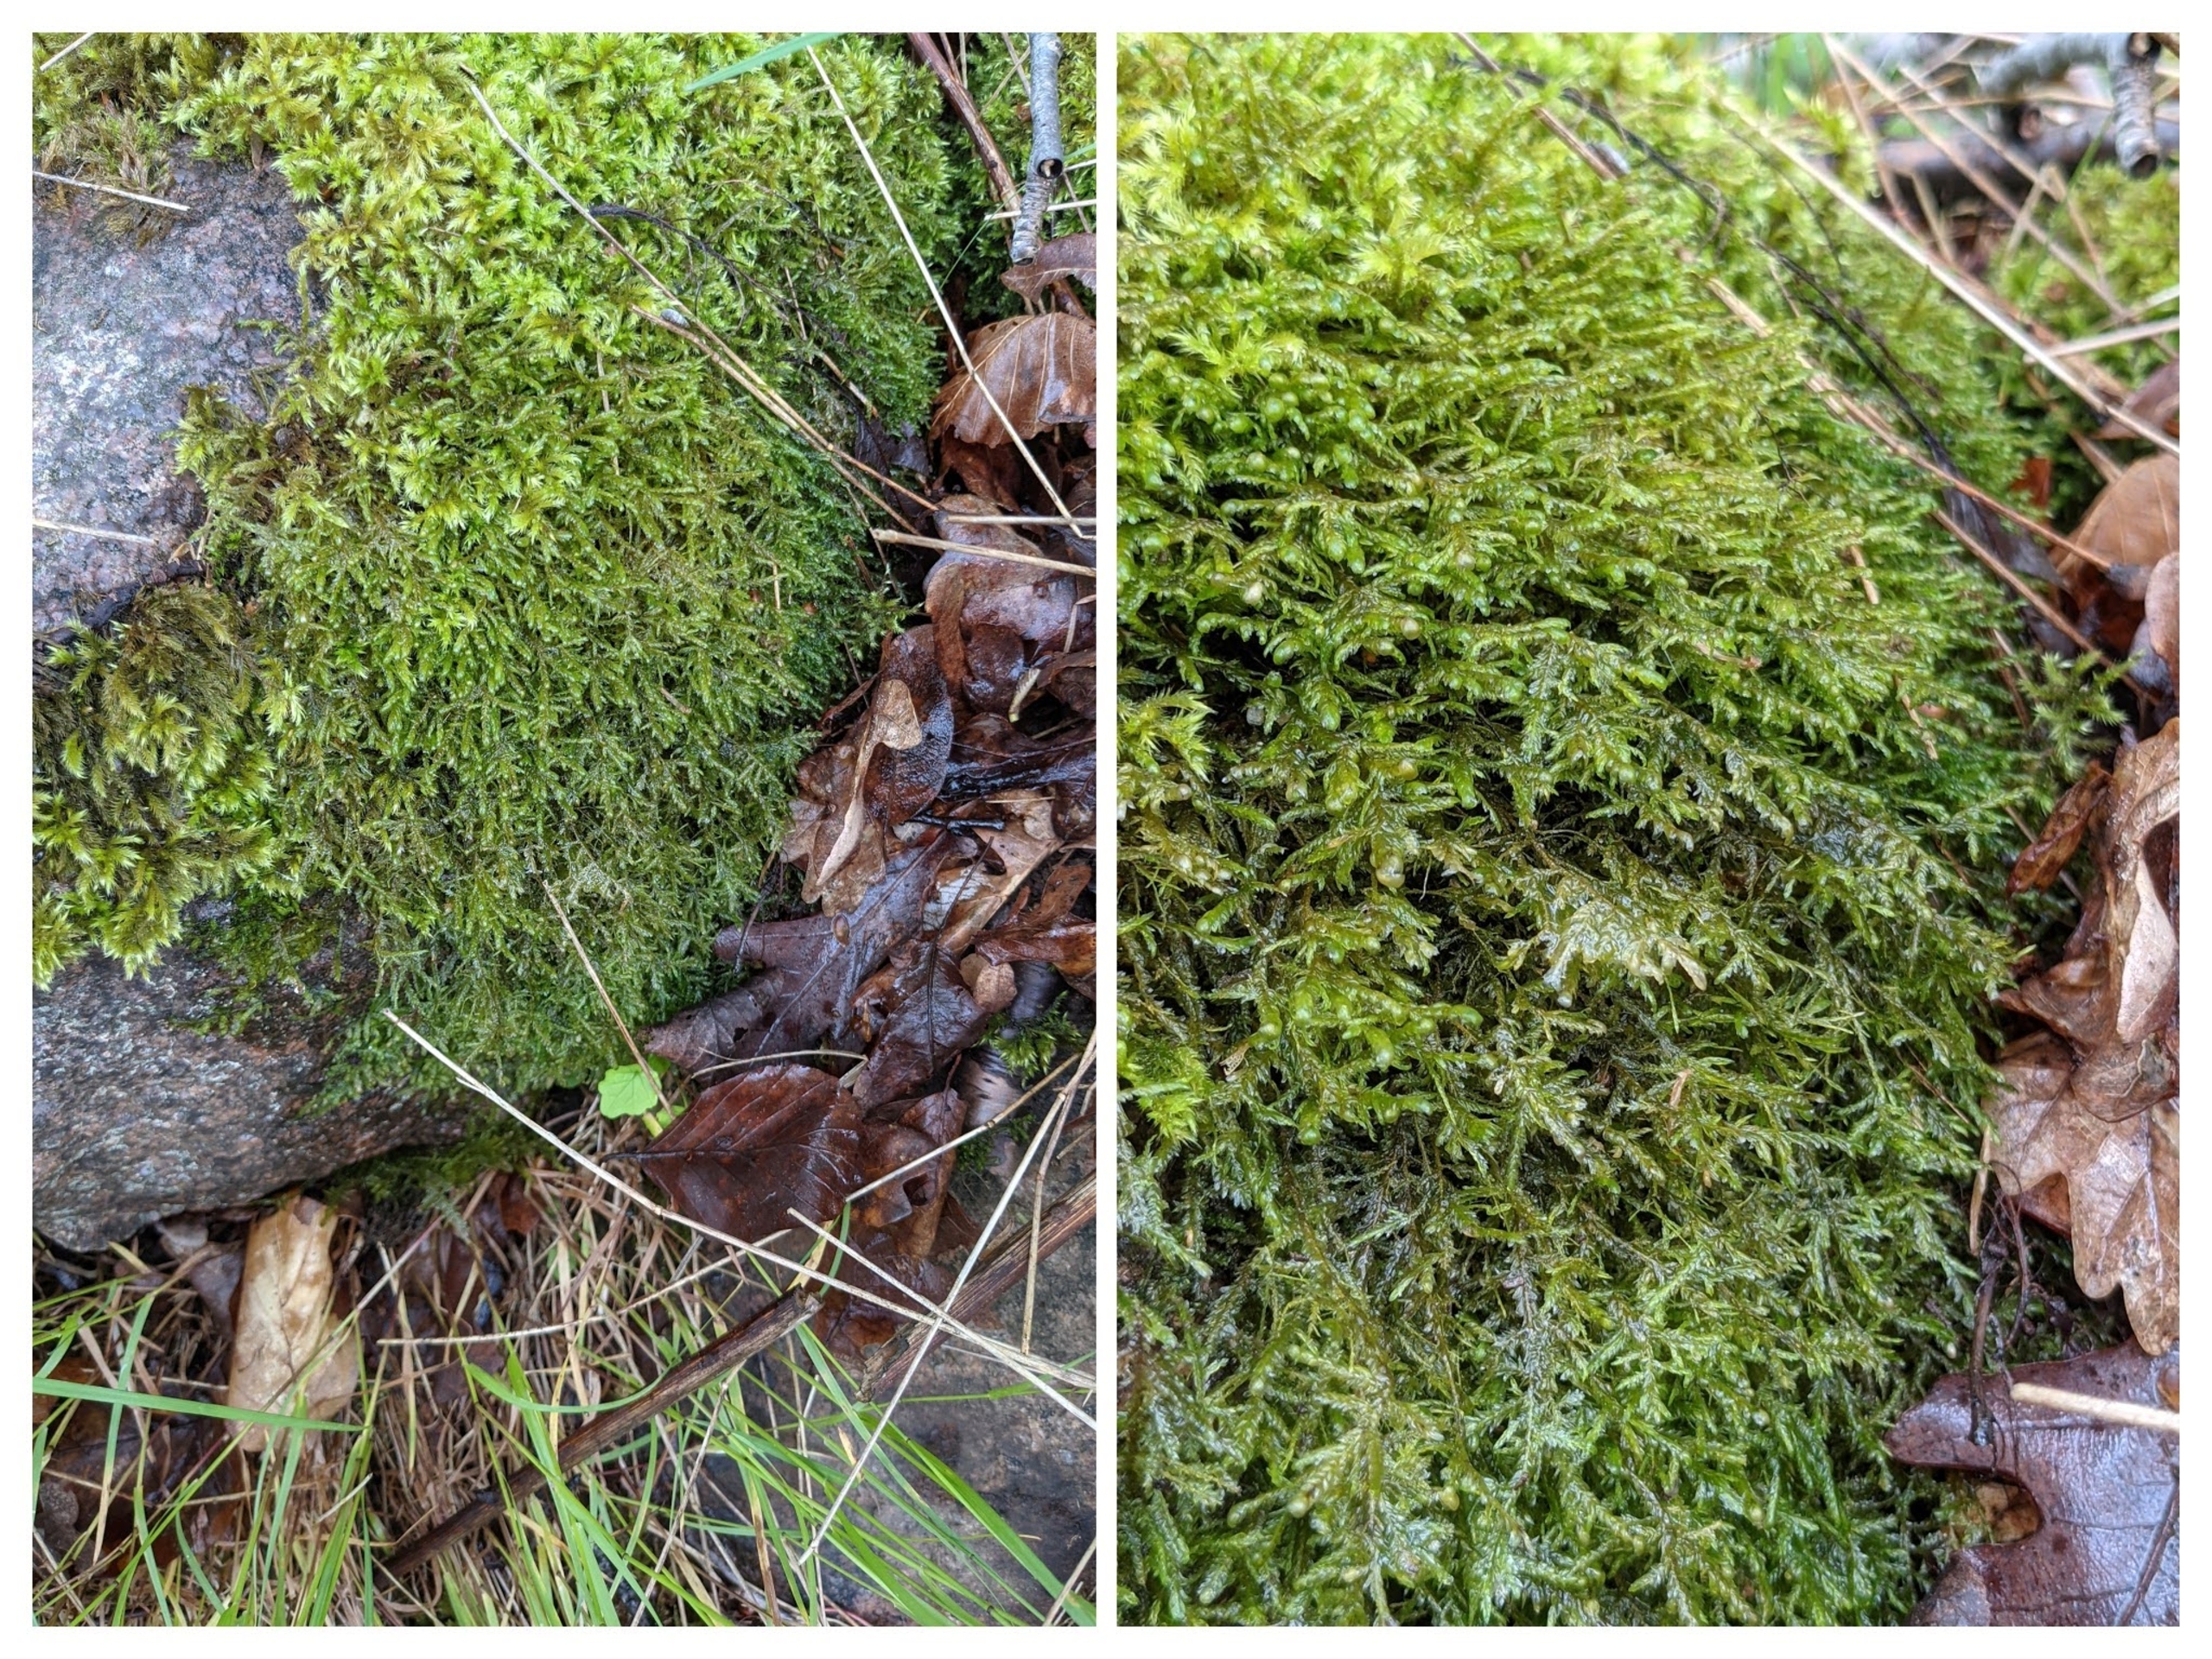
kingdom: Plantae
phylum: Bryophyta
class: Bryopsida
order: Hypnales
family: Neckeraceae
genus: Alleniella
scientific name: Alleniella complanata
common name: Almindelig fladmos
